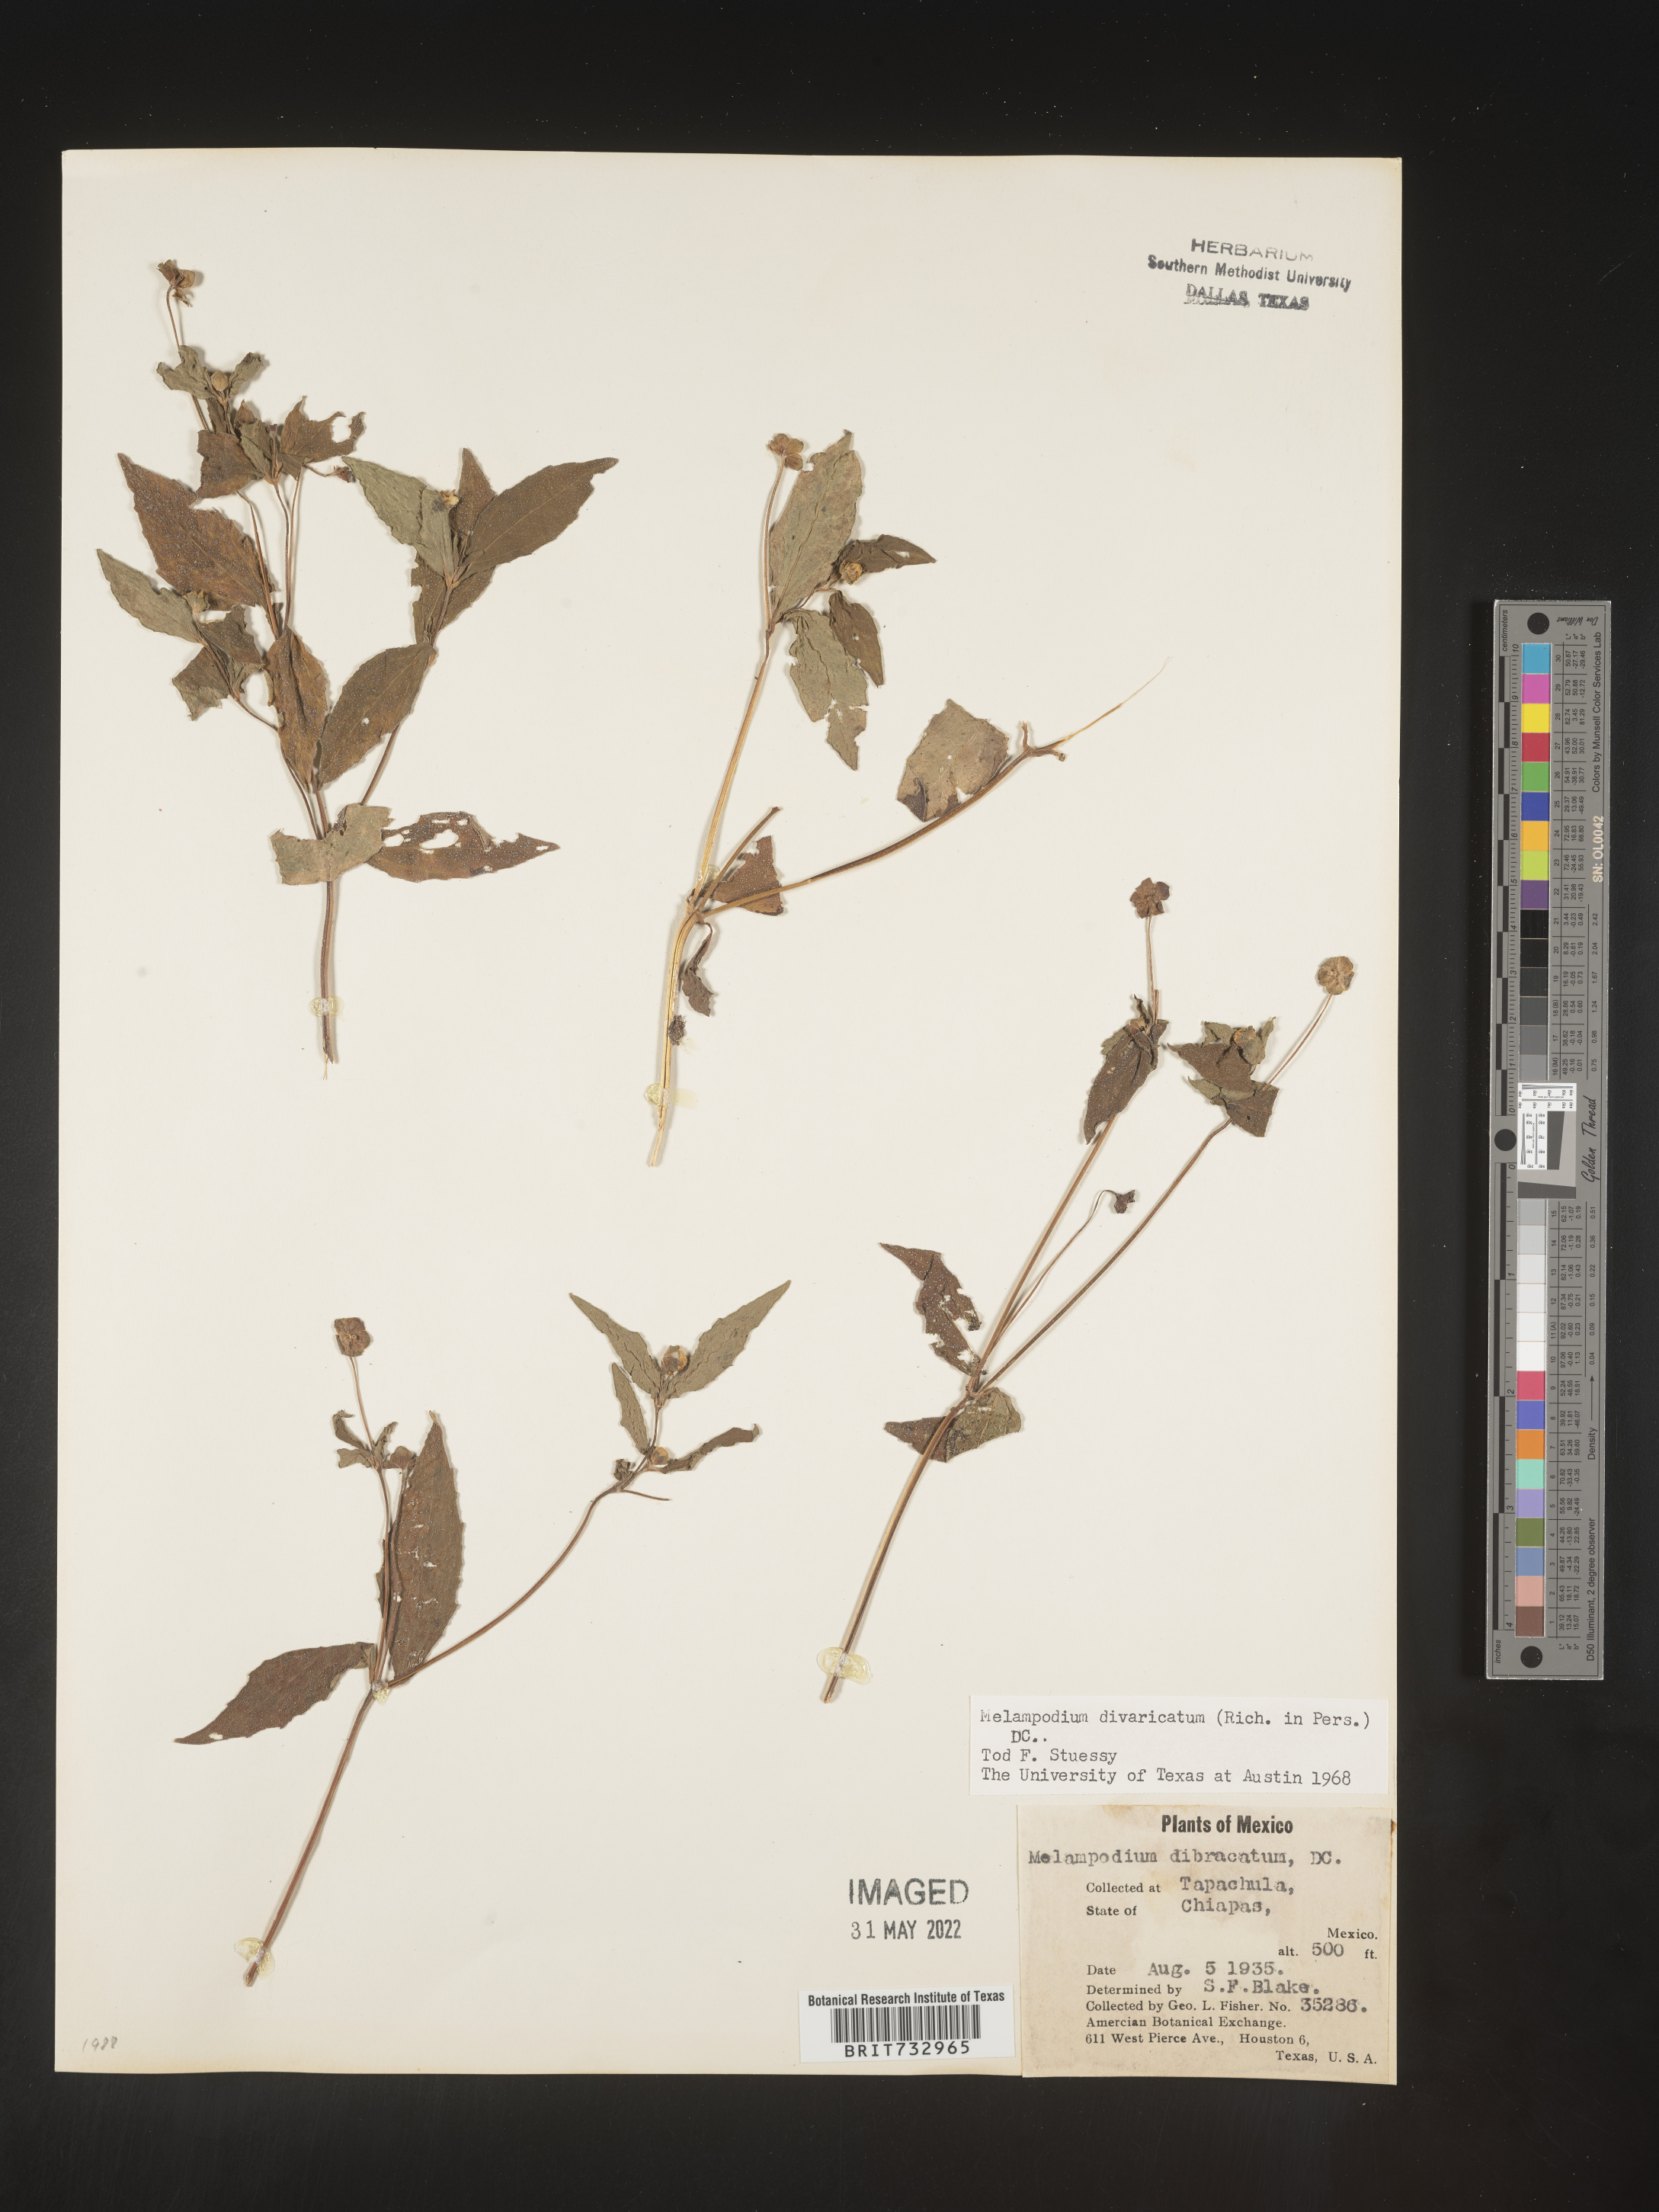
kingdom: Plantae
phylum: Tracheophyta
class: Magnoliopsida
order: Asterales
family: Asteraceae
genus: Melampodium
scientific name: Melampodium
